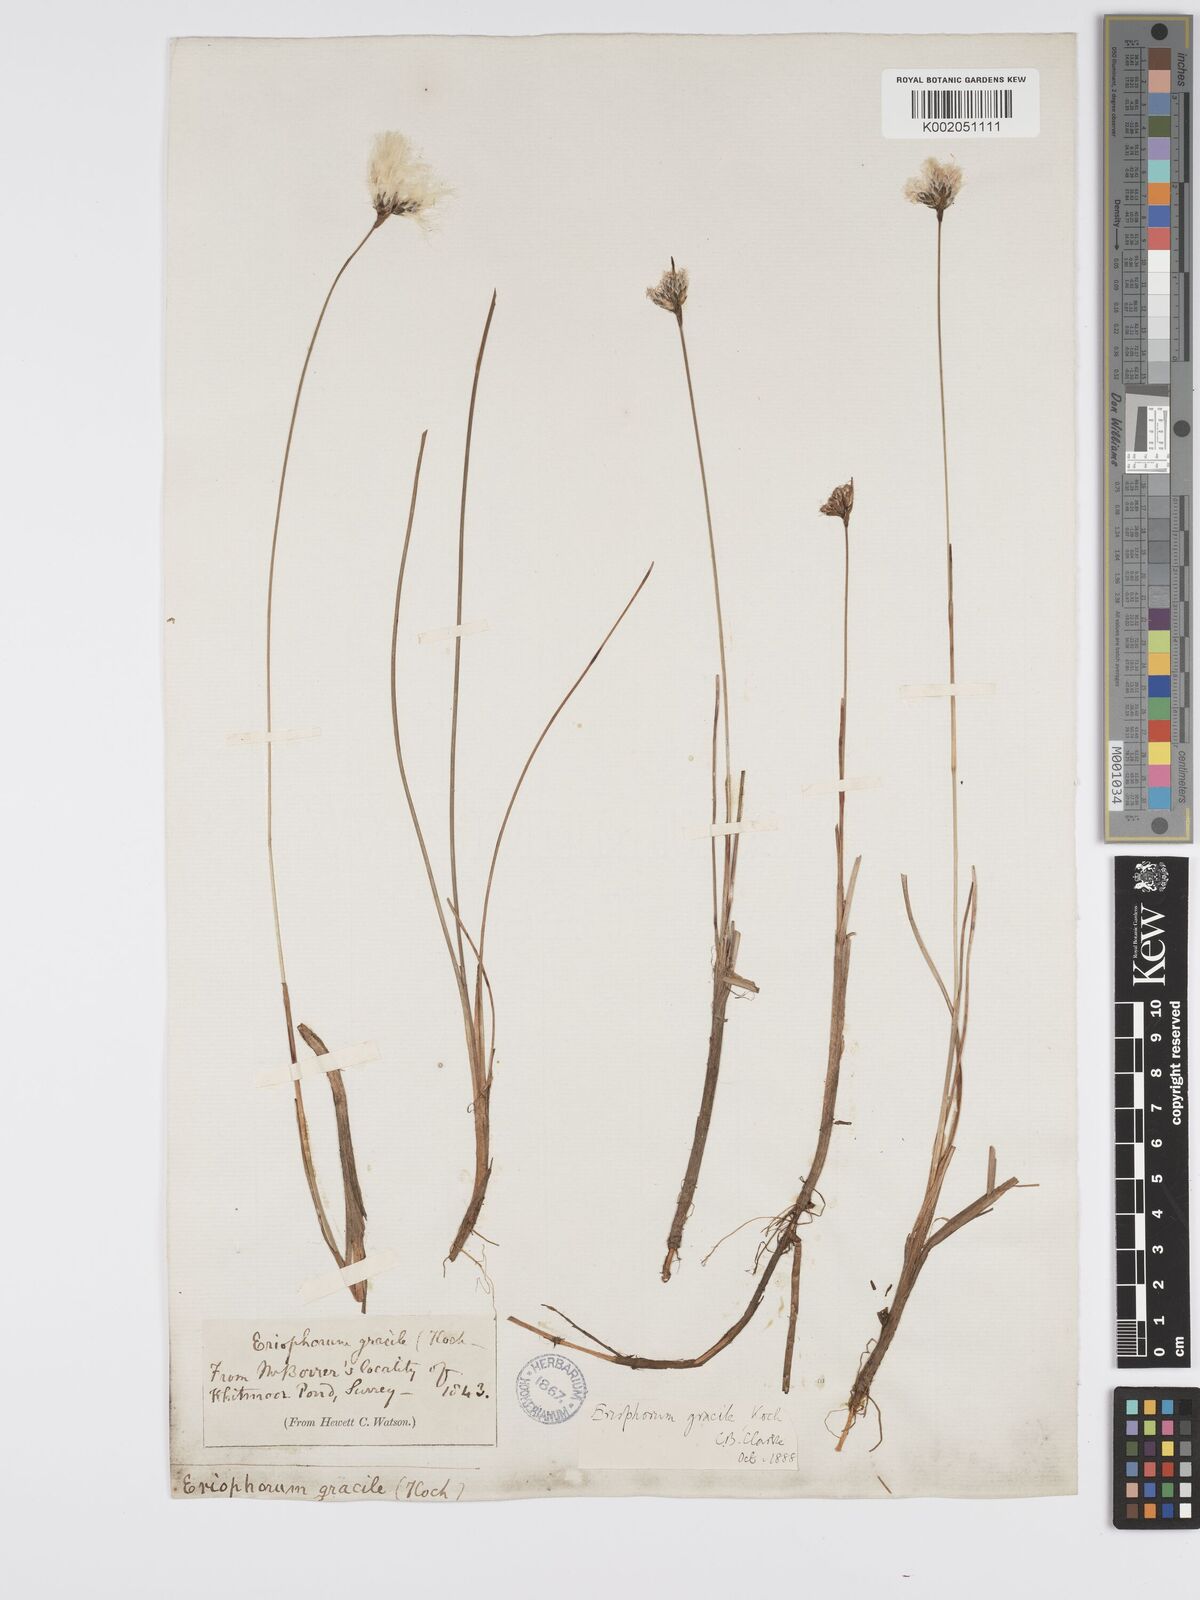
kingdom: Plantae
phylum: Tracheophyta
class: Liliopsida
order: Poales
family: Cyperaceae
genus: Eriophorum
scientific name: Eriophorum gracile
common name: Slender cottongrass
